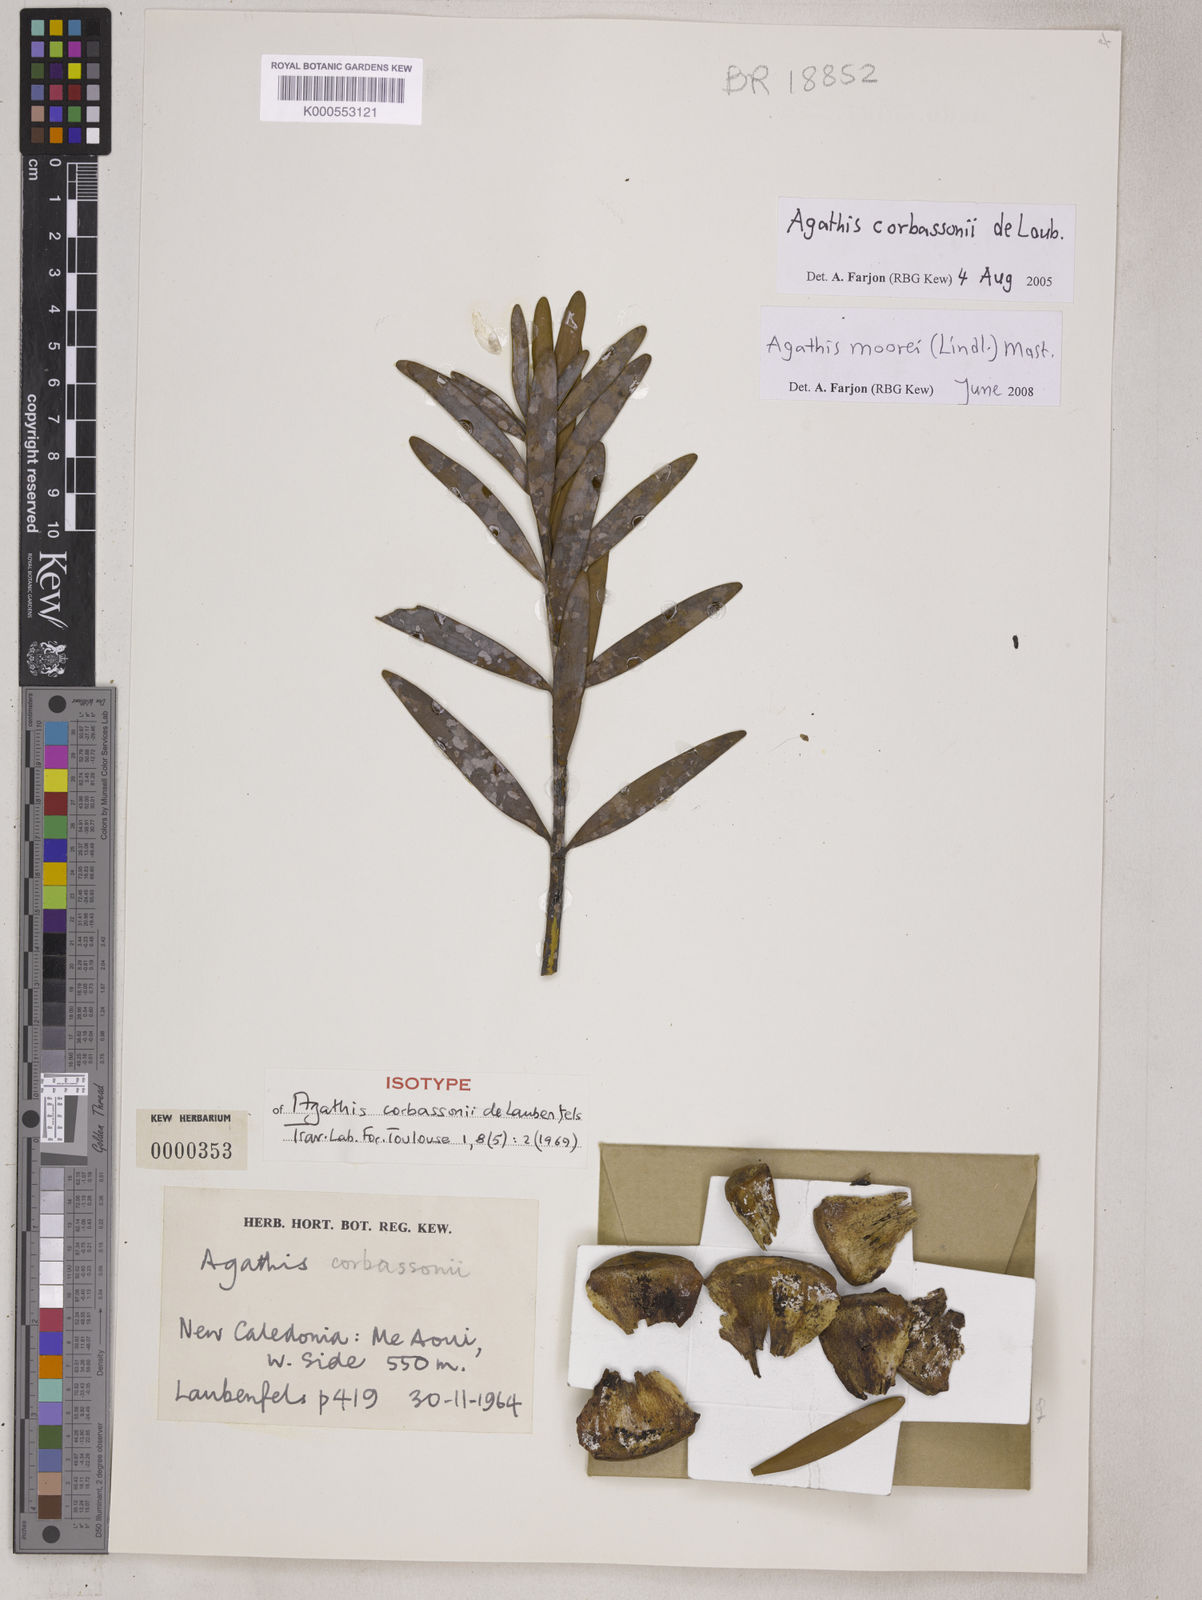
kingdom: Plantae
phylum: Tracheophyta
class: Pinopsida
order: Pinales
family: Araucariaceae
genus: Agathis
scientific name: Agathis moorei
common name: Moore's kauri
